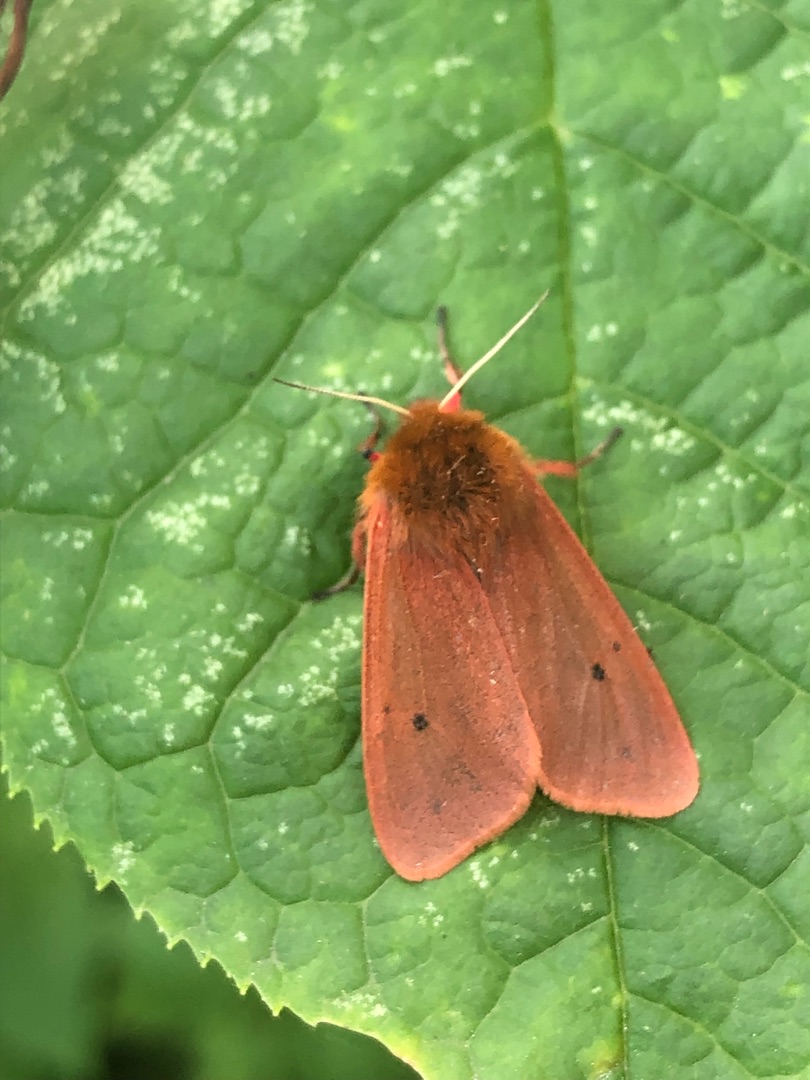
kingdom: Animalia
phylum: Arthropoda
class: Insecta
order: Lepidoptera
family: Erebidae
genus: Phragmatobia
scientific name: Phragmatobia fuliginosa
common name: Kanelbjørn
